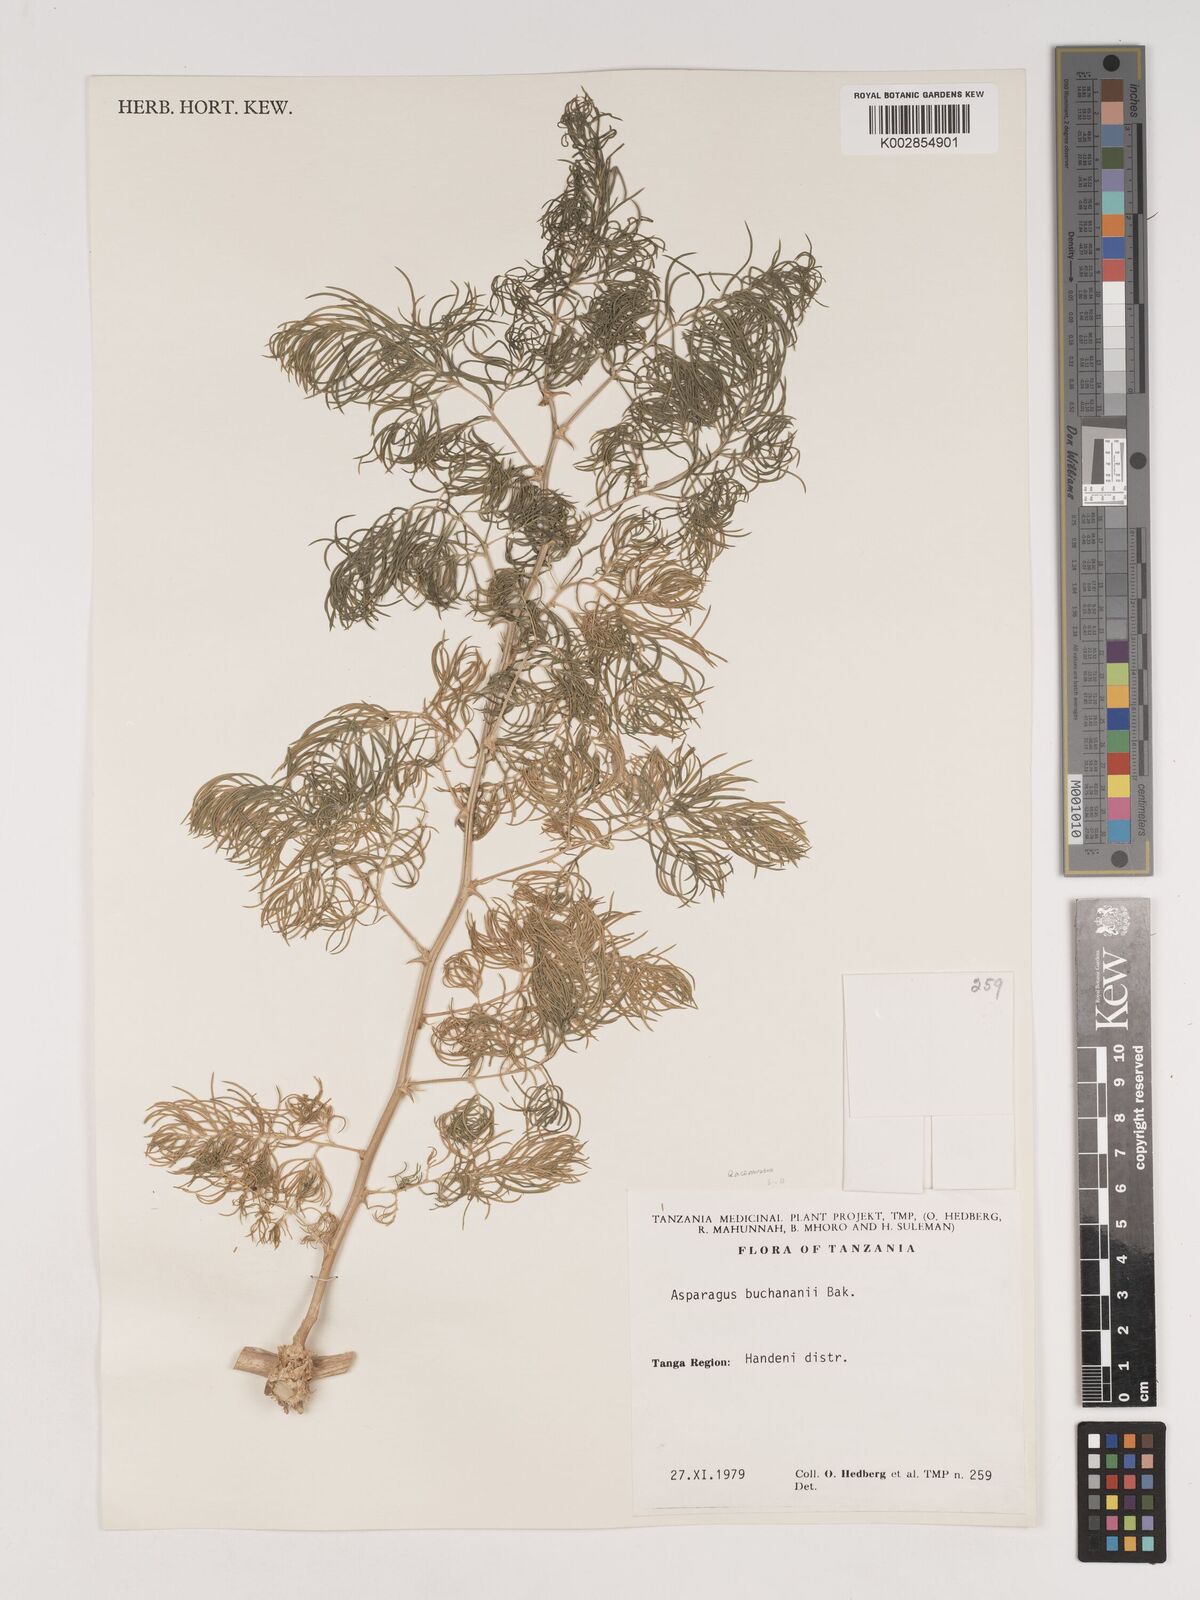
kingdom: Plantae
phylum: Tracheophyta
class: Liliopsida
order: Asparagales
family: Asparagaceae
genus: Asparagus
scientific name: Asparagus racemosus
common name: Asparagus-fern
